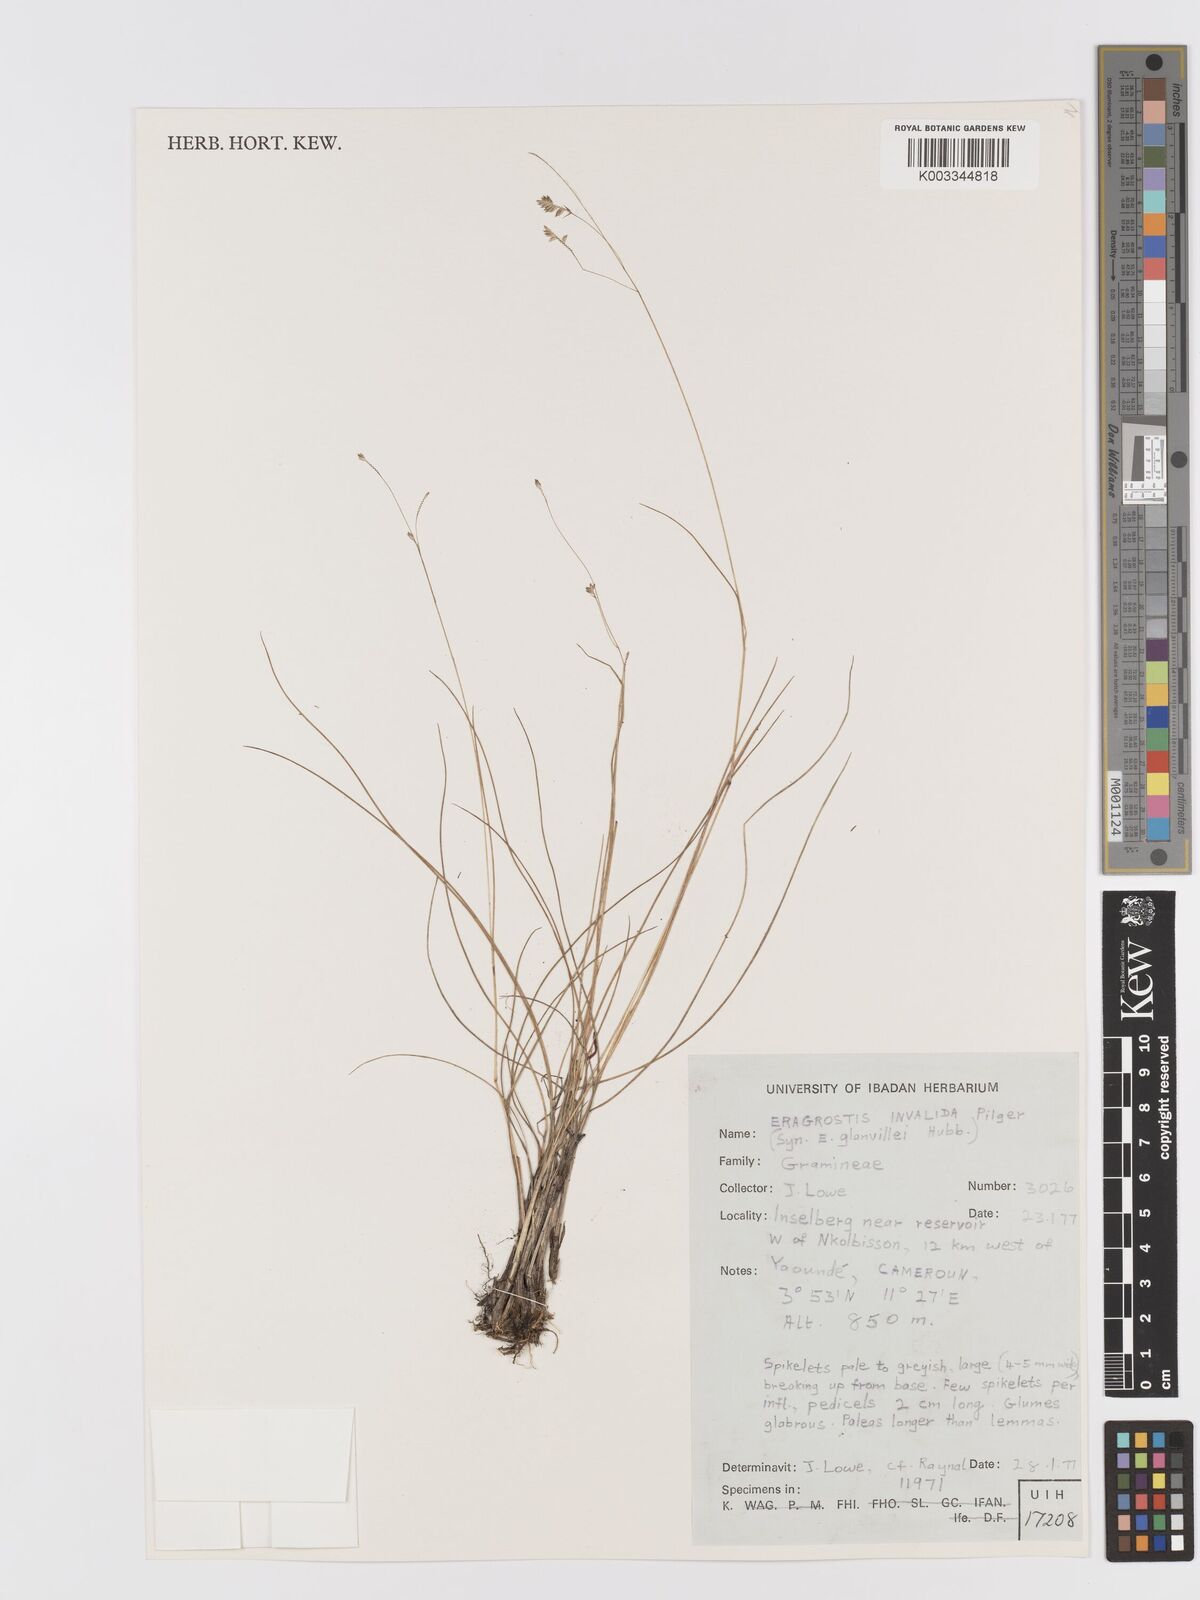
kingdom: Plantae
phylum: Tracheophyta
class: Liliopsida
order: Poales
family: Poaceae
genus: Eragrostis
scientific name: Eragrostis invalida
